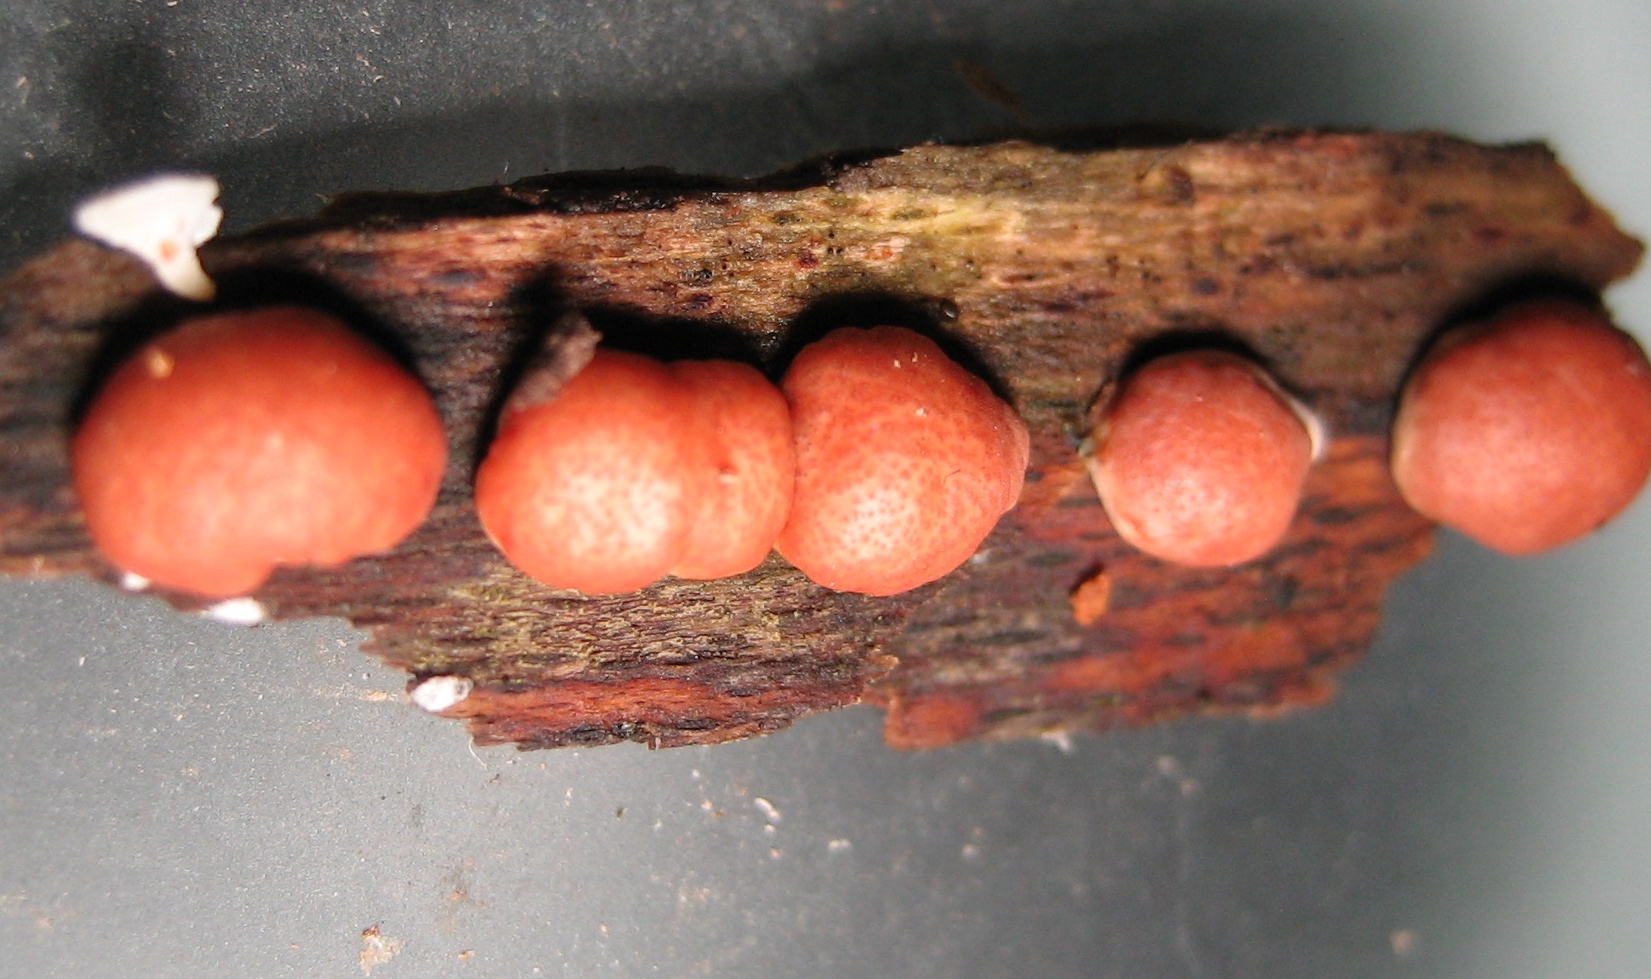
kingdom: Fungi
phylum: Ascomycota
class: Sordariomycetes
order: Hypocreales
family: Hypocreaceae
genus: Trichoderma
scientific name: Trichoderma europaeum
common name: rosabrun kødkerne
